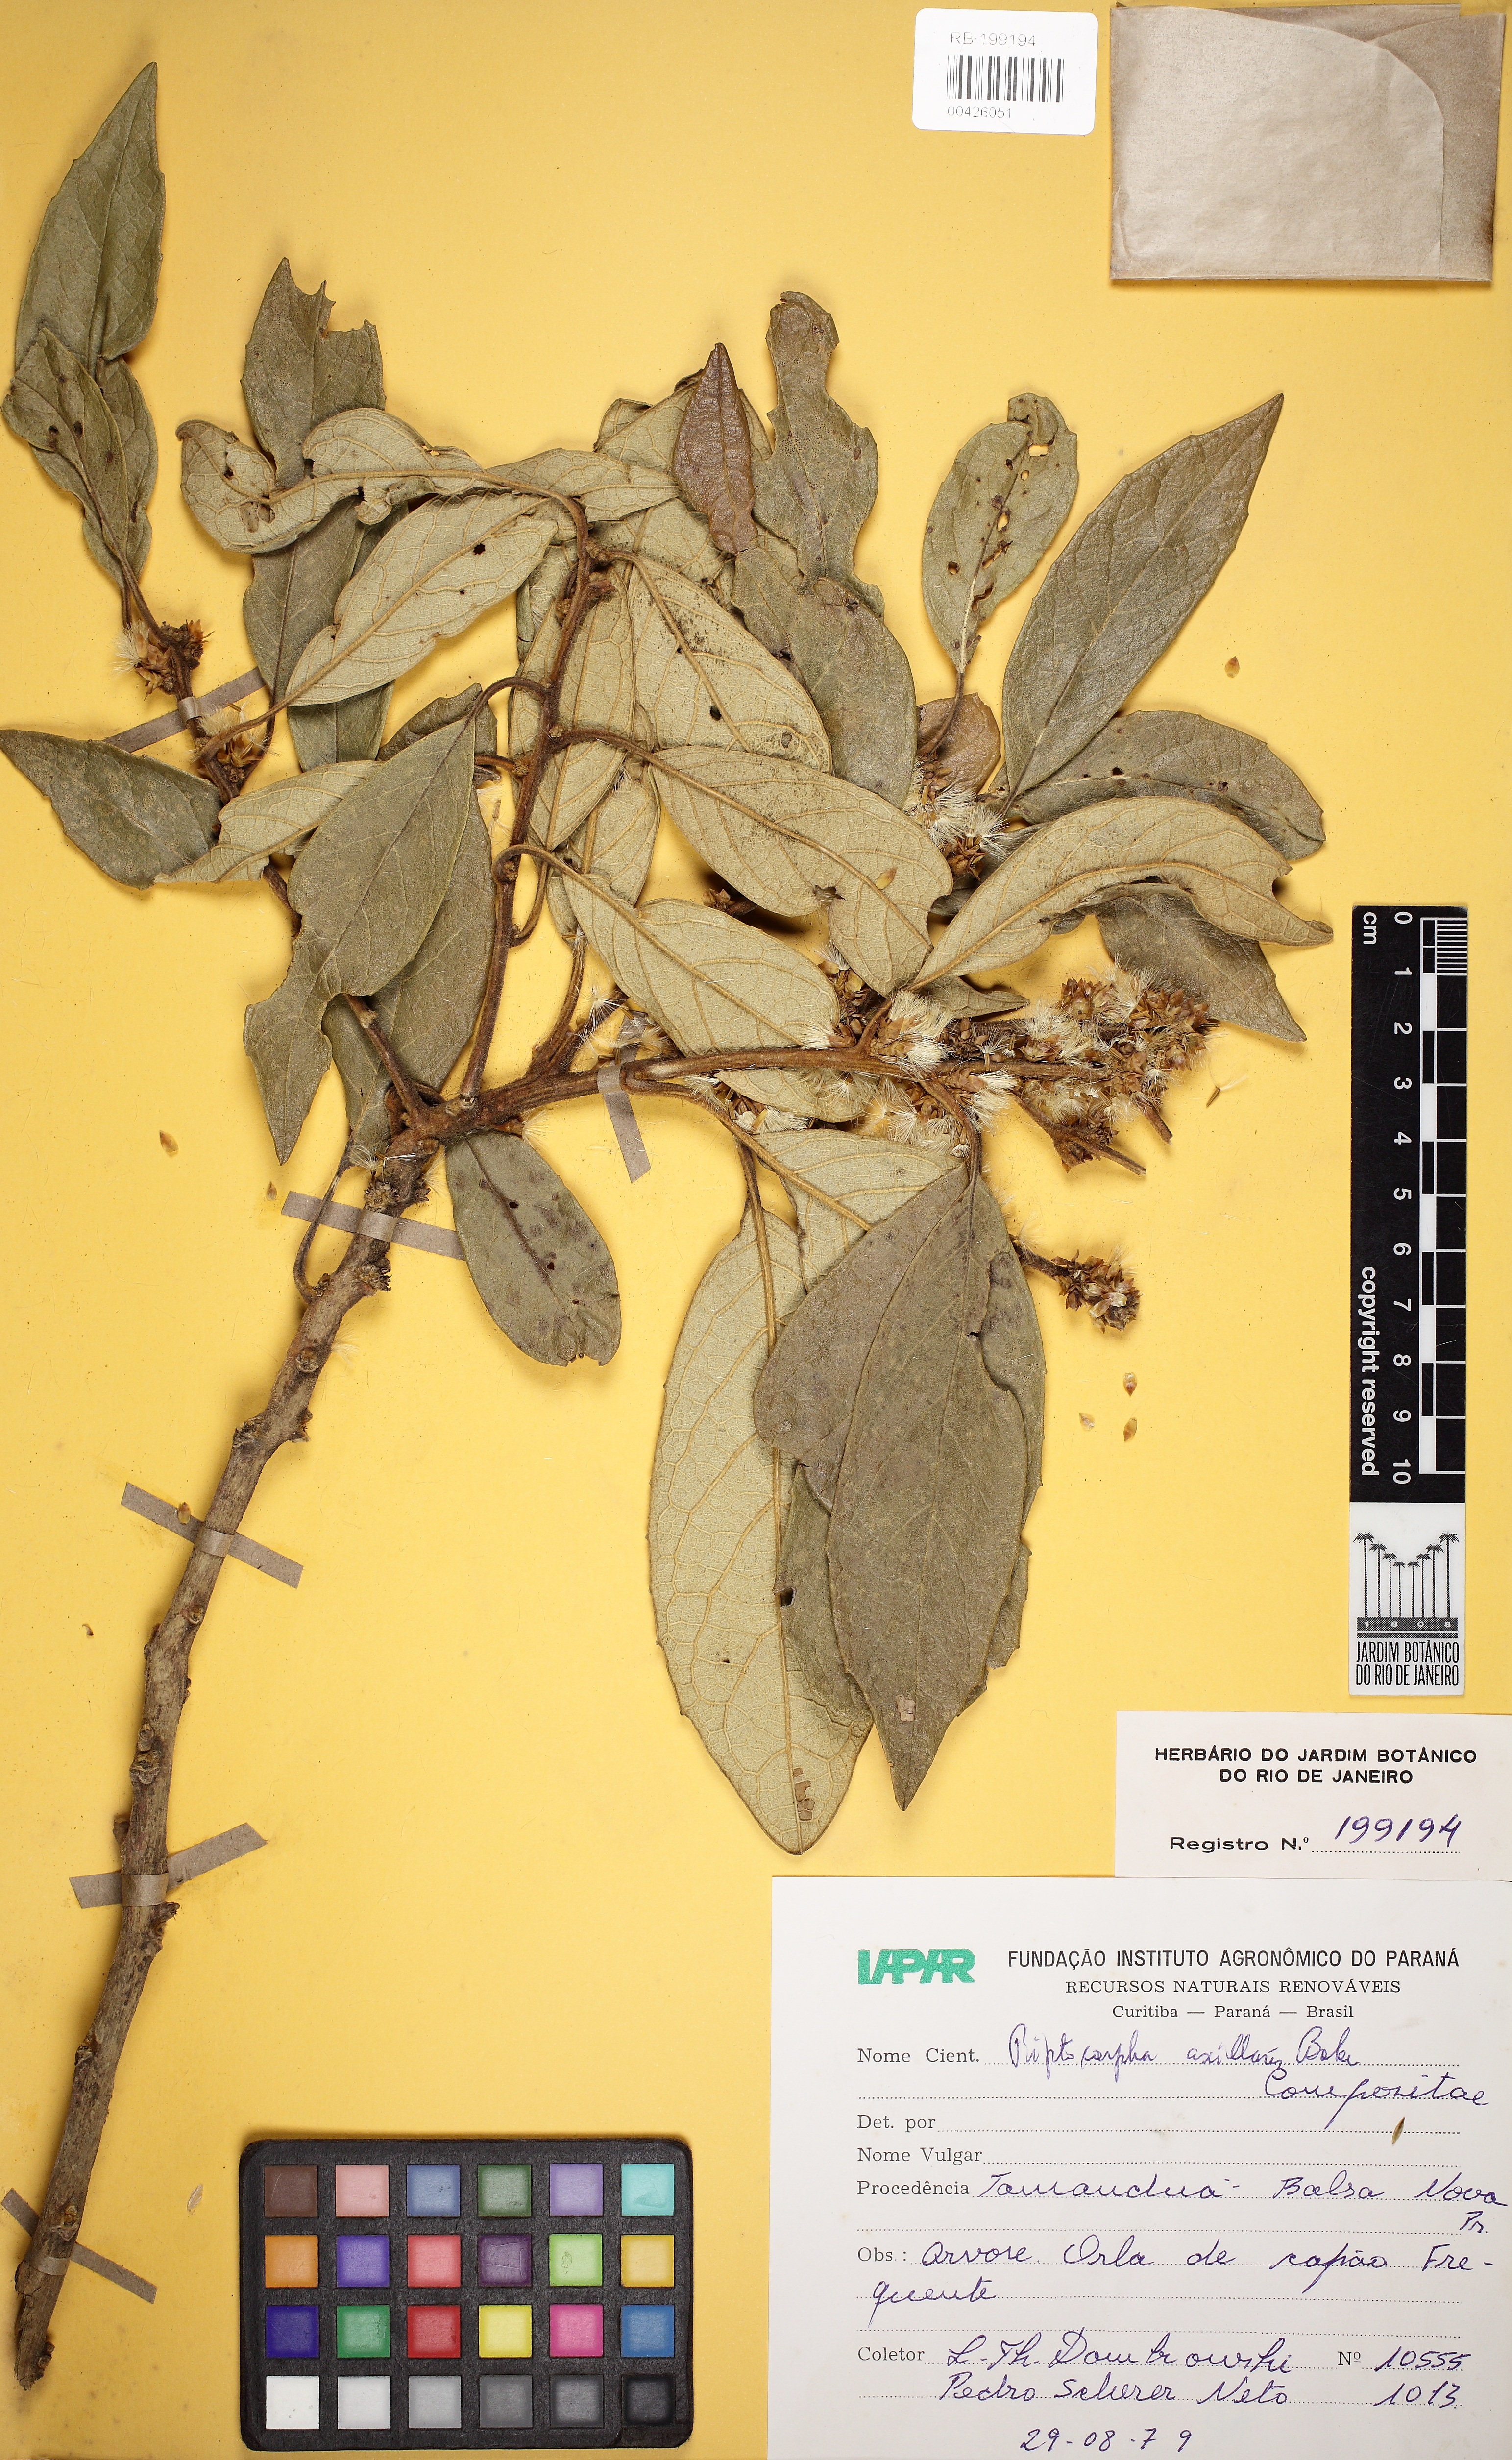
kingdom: Plantae
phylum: Tracheophyta
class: Magnoliopsida
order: Asterales
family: Asteraceae
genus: Piptocarpha
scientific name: Piptocarpha axillaris
